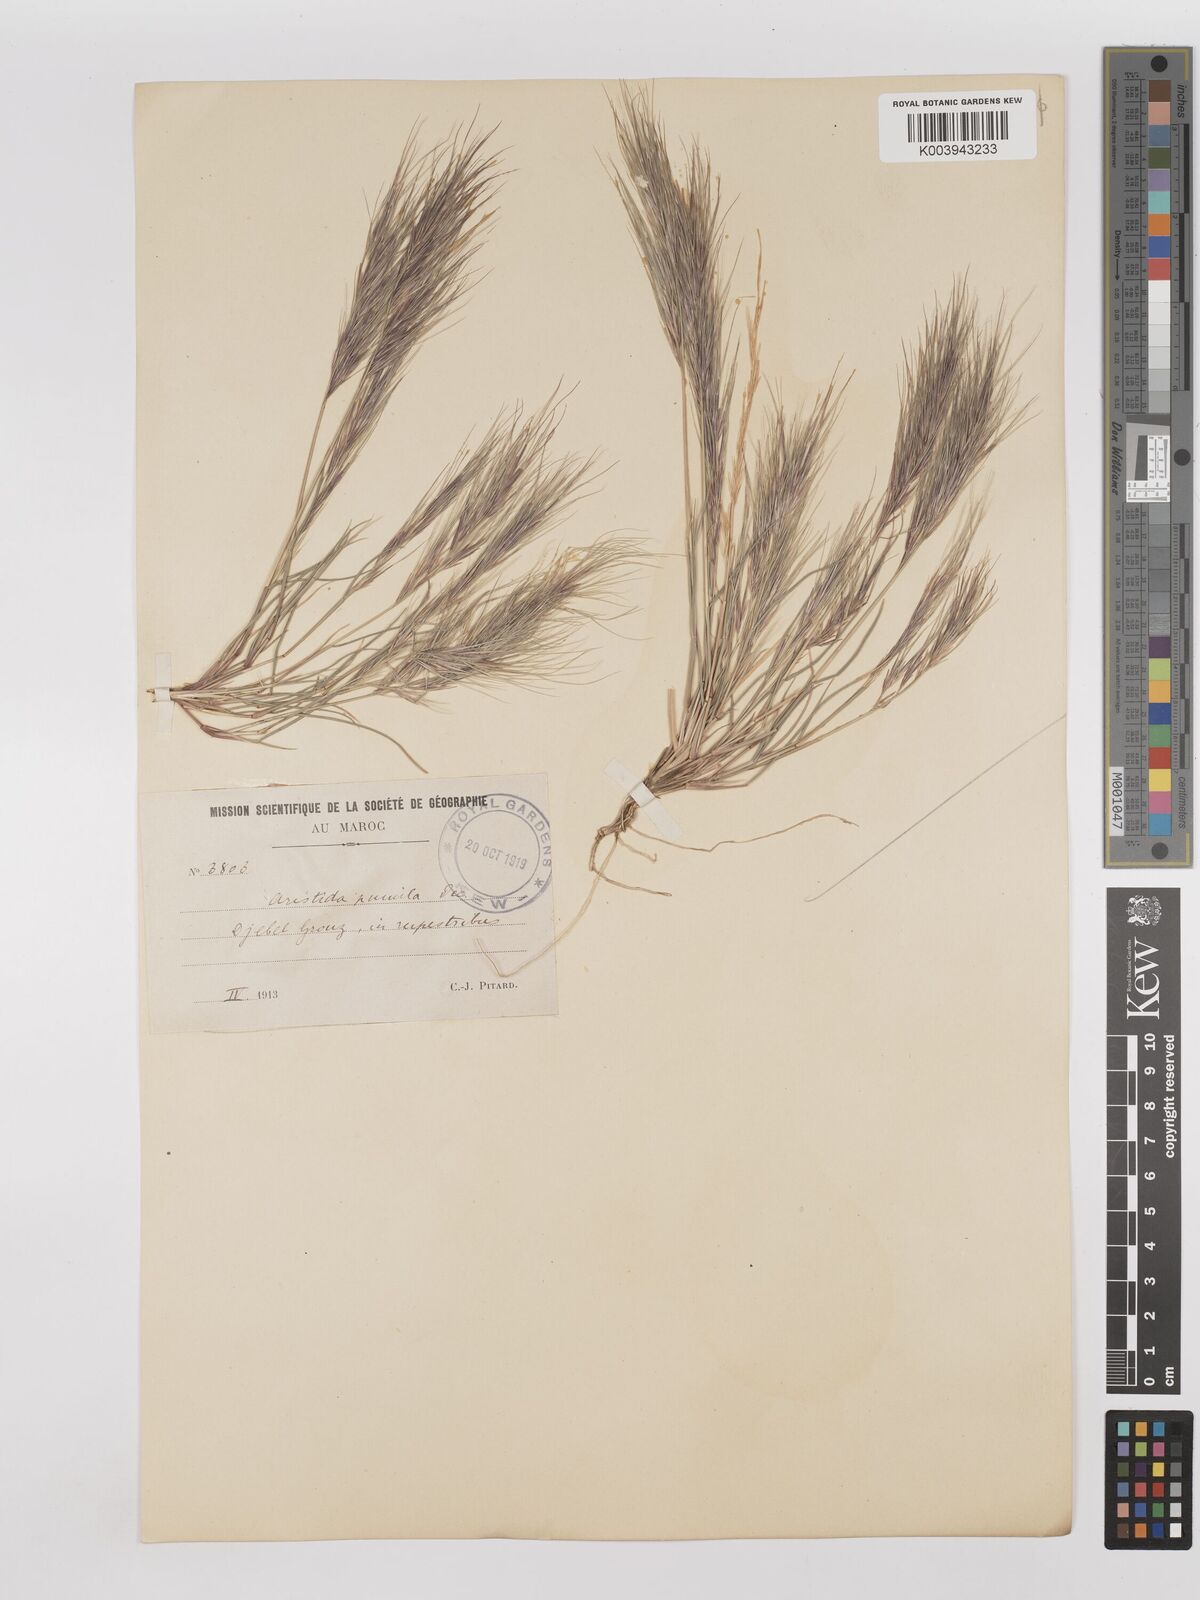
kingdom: Plantae
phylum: Tracheophyta
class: Liliopsida
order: Poales
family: Poaceae
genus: Aristida
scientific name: Aristida adscensionis
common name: Sixweeks threeawn
